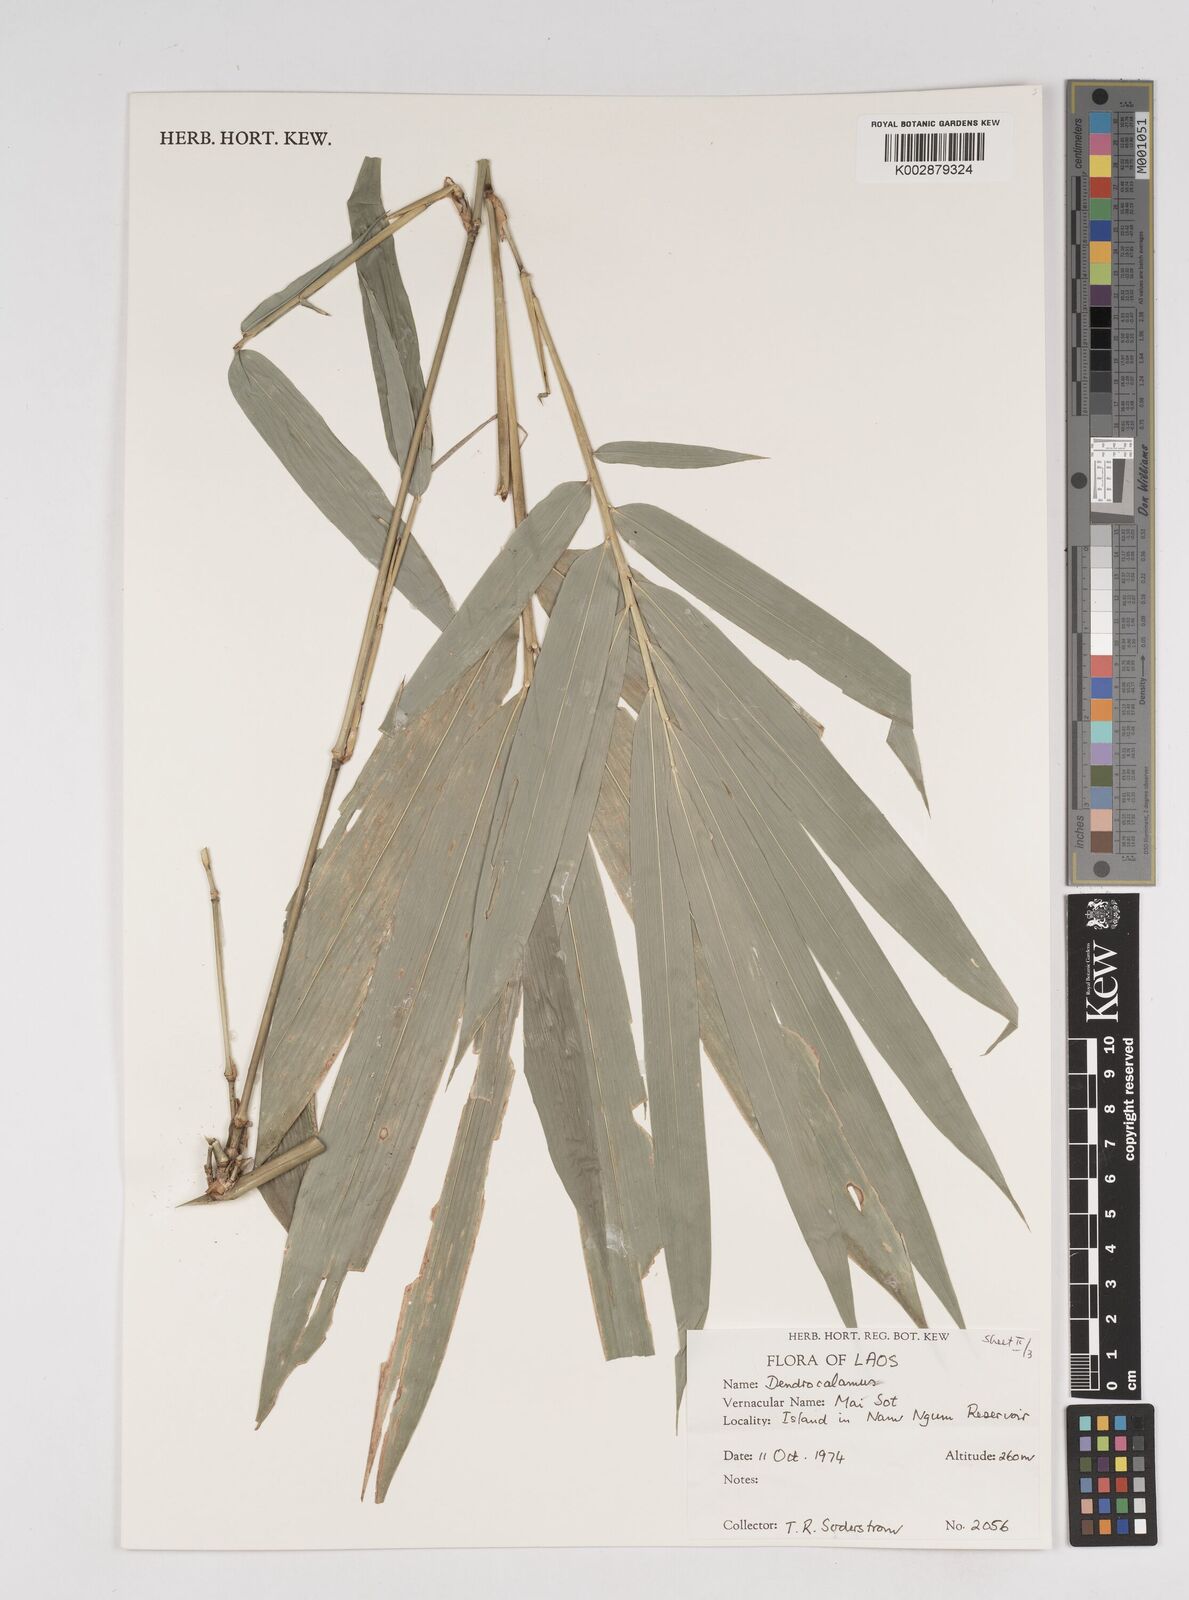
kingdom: Plantae
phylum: Tracheophyta
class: Liliopsida
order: Poales
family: Poaceae
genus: Dendrocalamus
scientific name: Dendrocalamus
